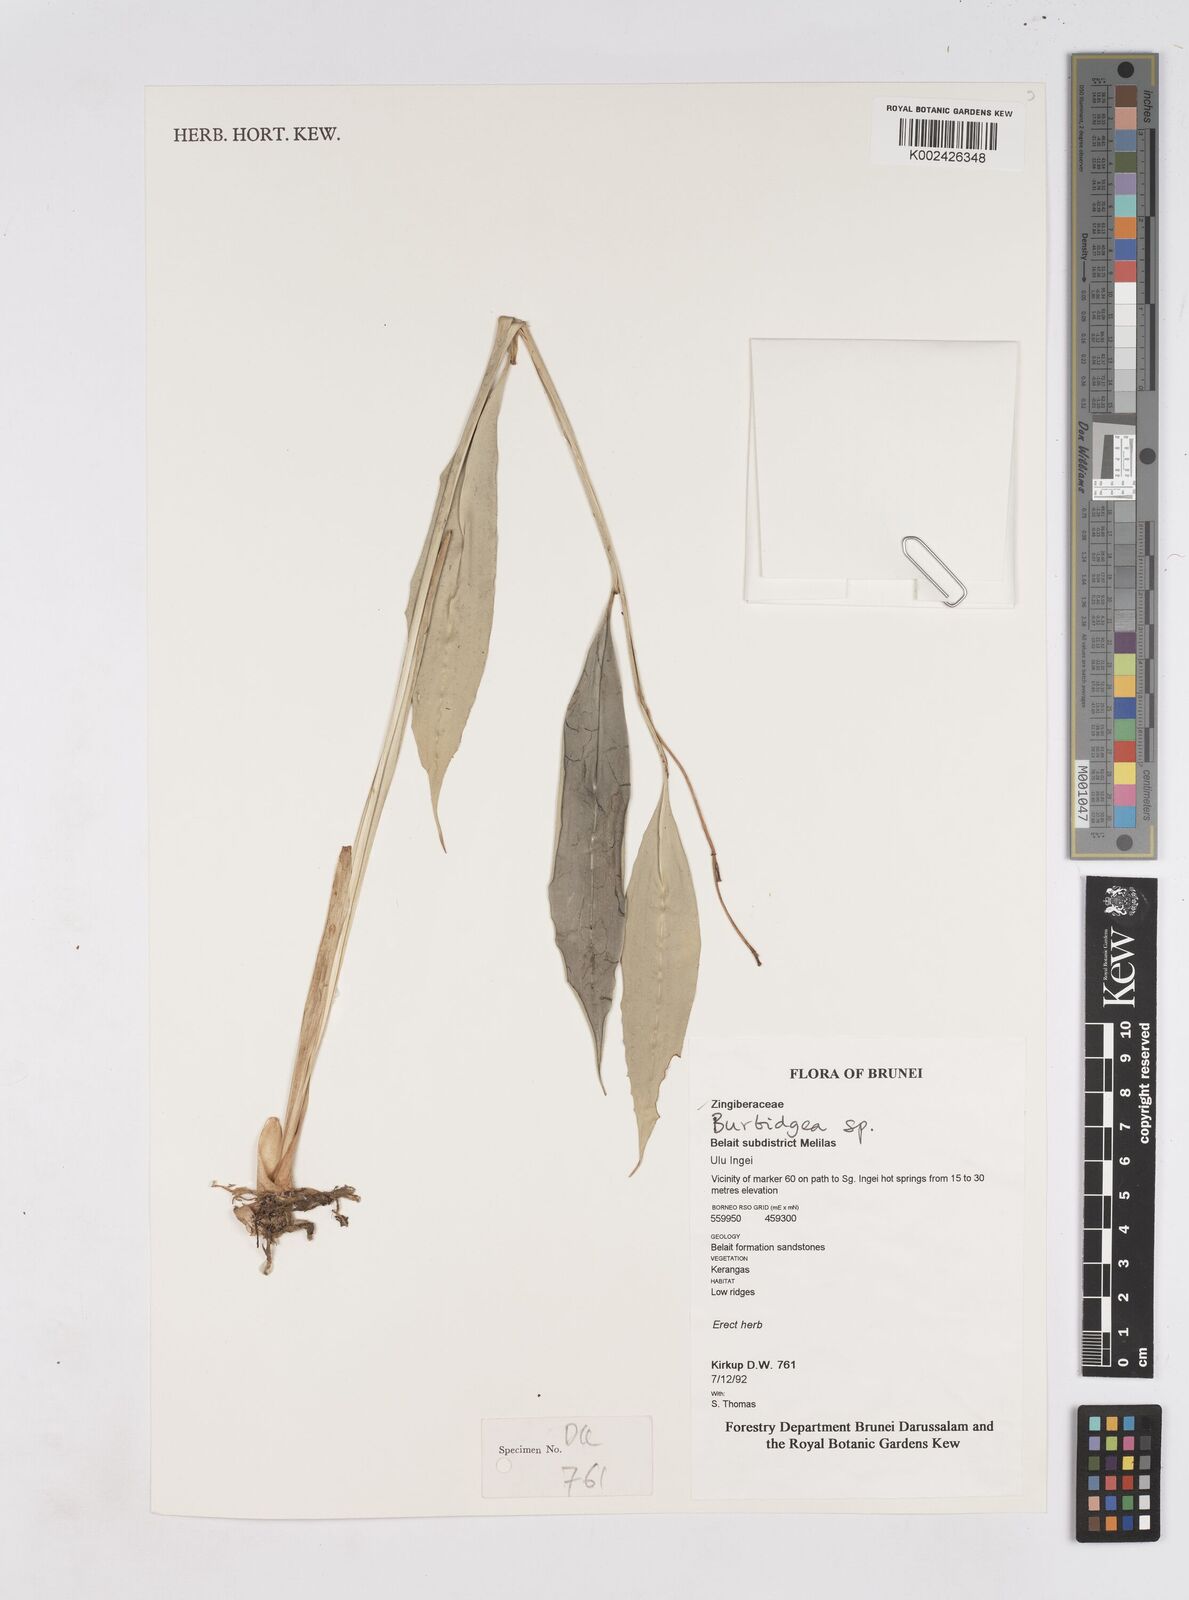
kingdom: Plantae
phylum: Tracheophyta
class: Liliopsida
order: Zingiberales
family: Zingiberaceae
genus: Burbidgea
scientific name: Burbidgea
